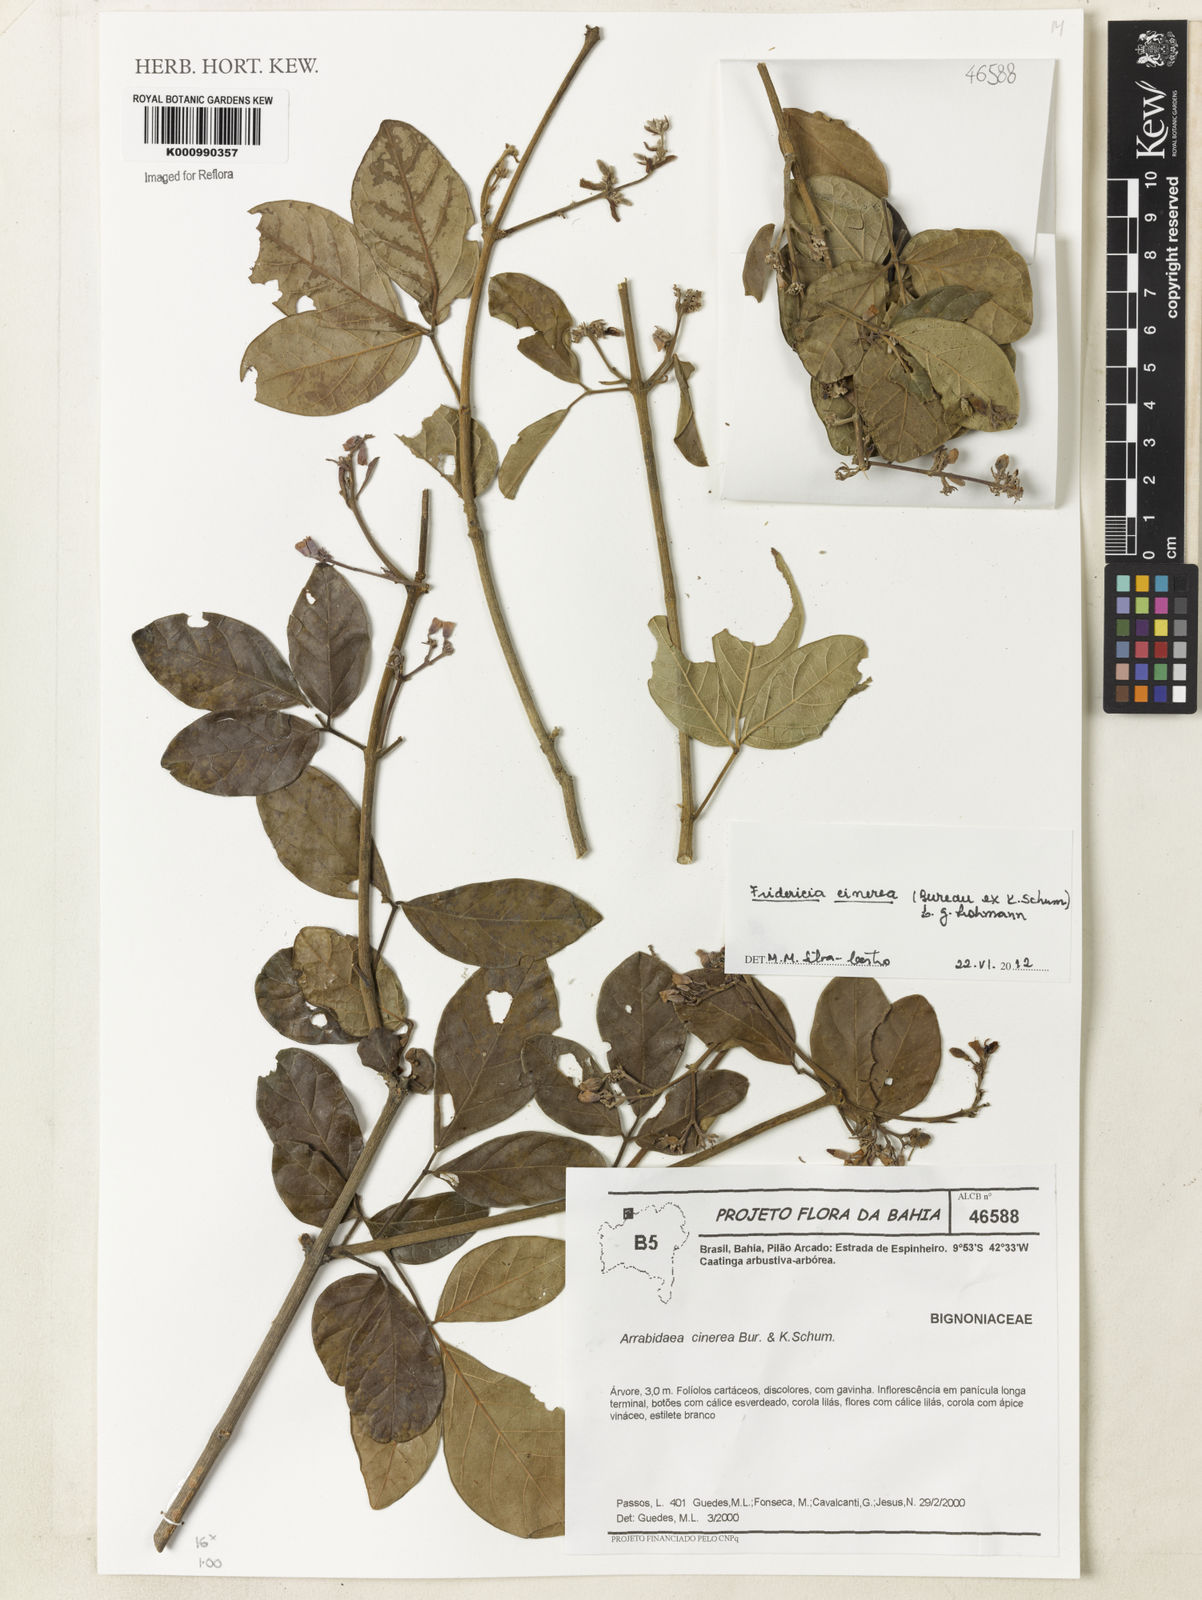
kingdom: Plantae
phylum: Tracheophyta
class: Magnoliopsida
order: Lamiales
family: Bignoniaceae
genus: Fridericia
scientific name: Fridericia cinerea
